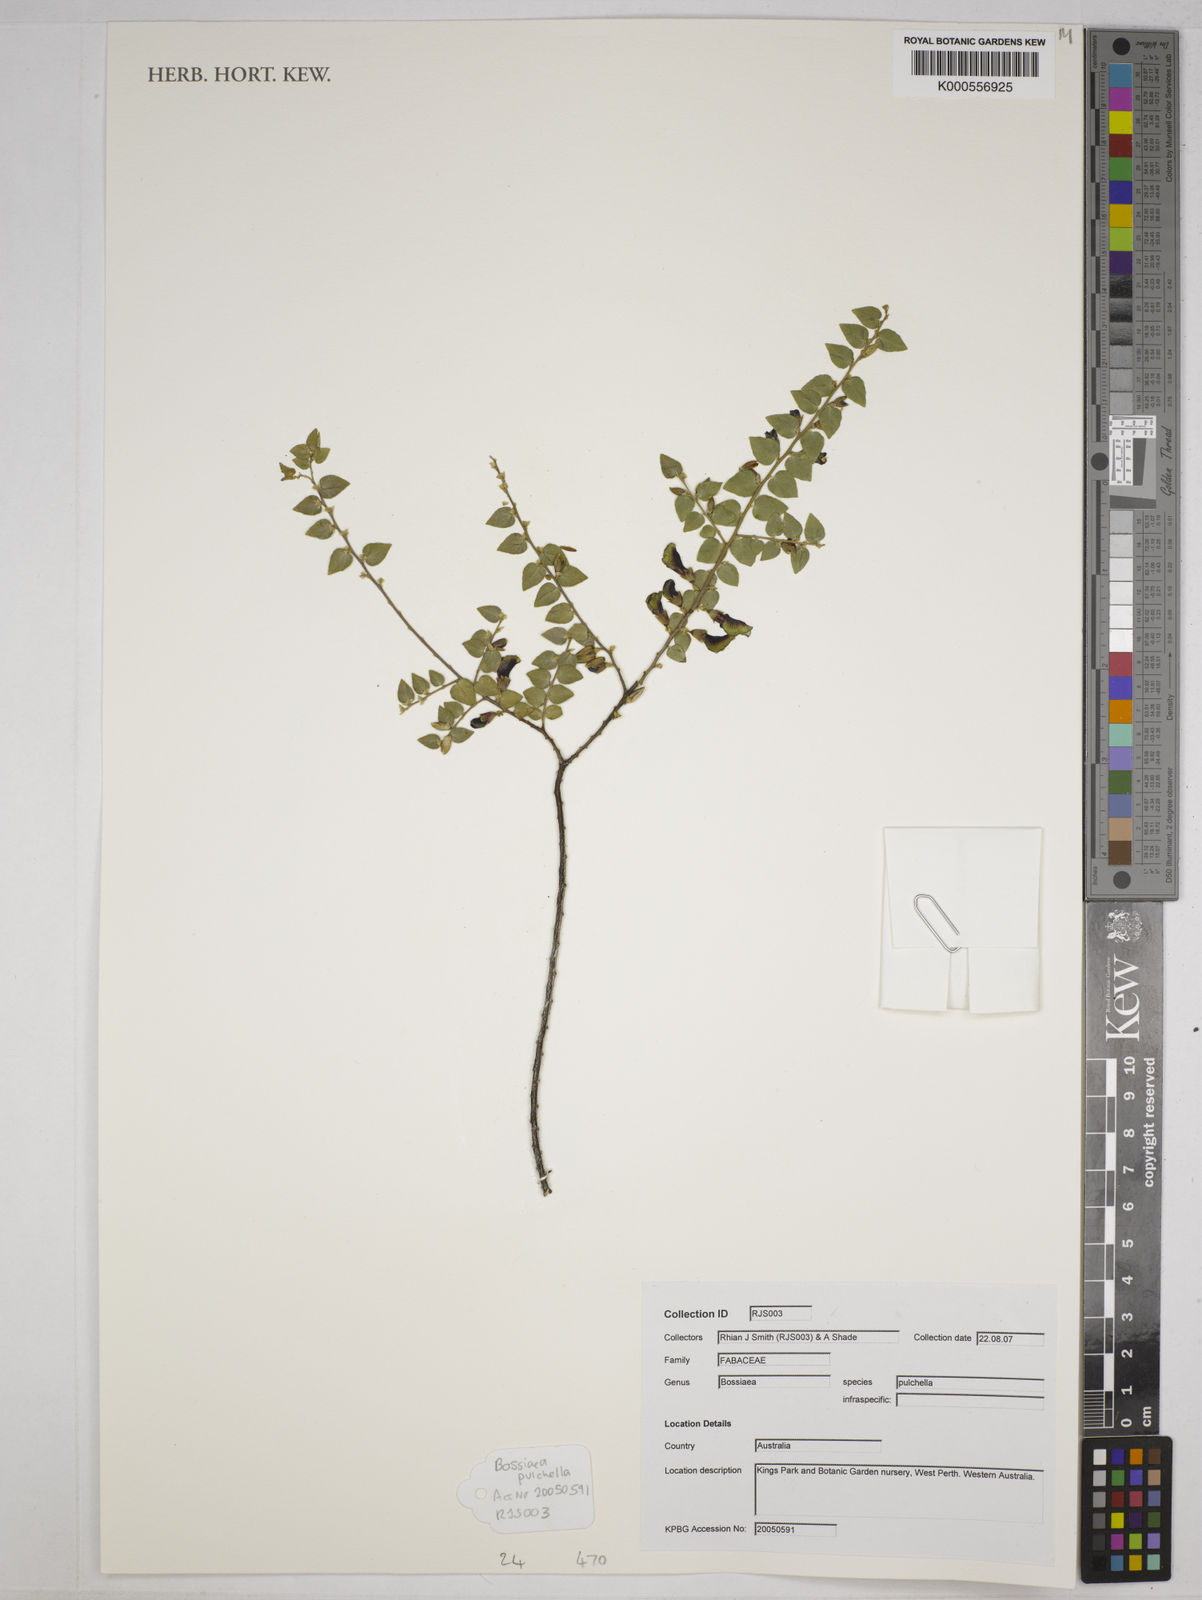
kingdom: Plantae
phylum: Tracheophyta
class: Magnoliopsida
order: Fabales
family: Fabaceae
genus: Bossiaea
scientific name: Bossiaea pulchella
